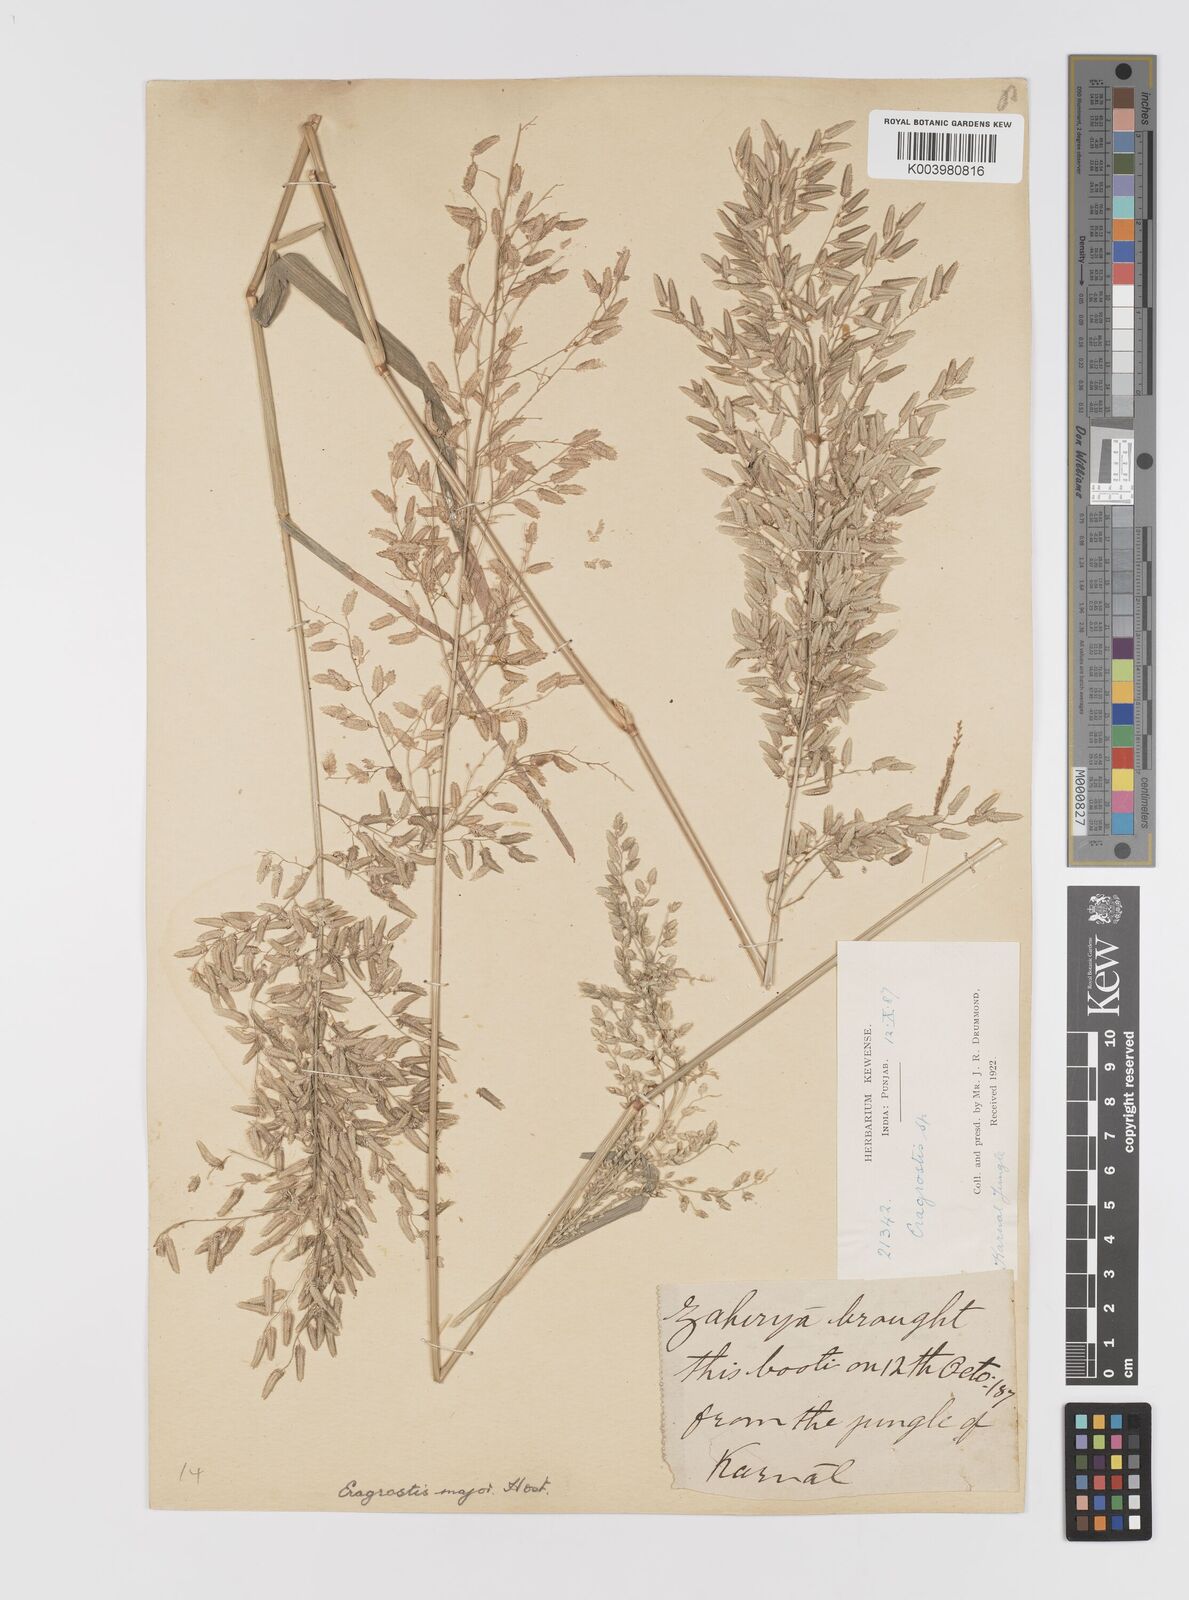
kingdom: Plantae
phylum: Tracheophyta
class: Liliopsida
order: Poales
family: Poaceae
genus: Eragrostis
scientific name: Eragrostis cilianensis
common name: Stinkgrass
